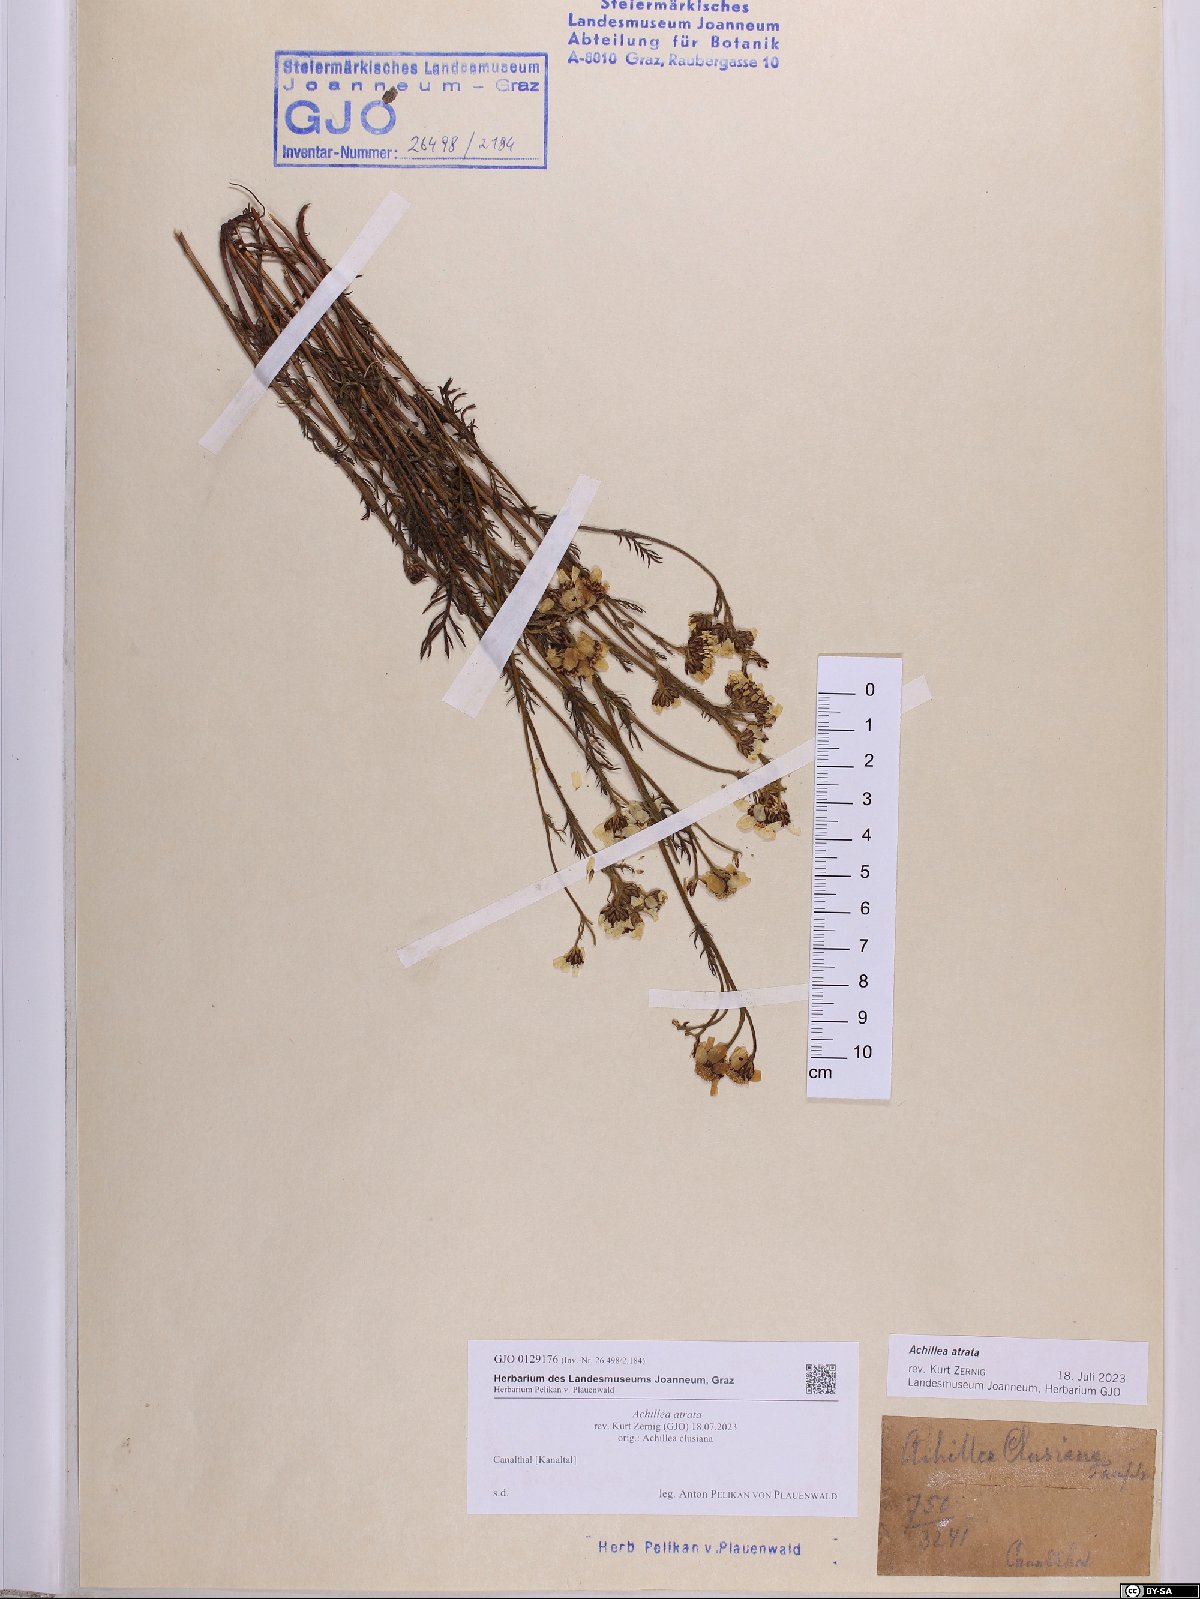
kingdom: Plantae
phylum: Tracheophyta
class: Magnoliopsida
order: Asterales
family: Asteraceae
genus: Achillea
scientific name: Achillea atrata
